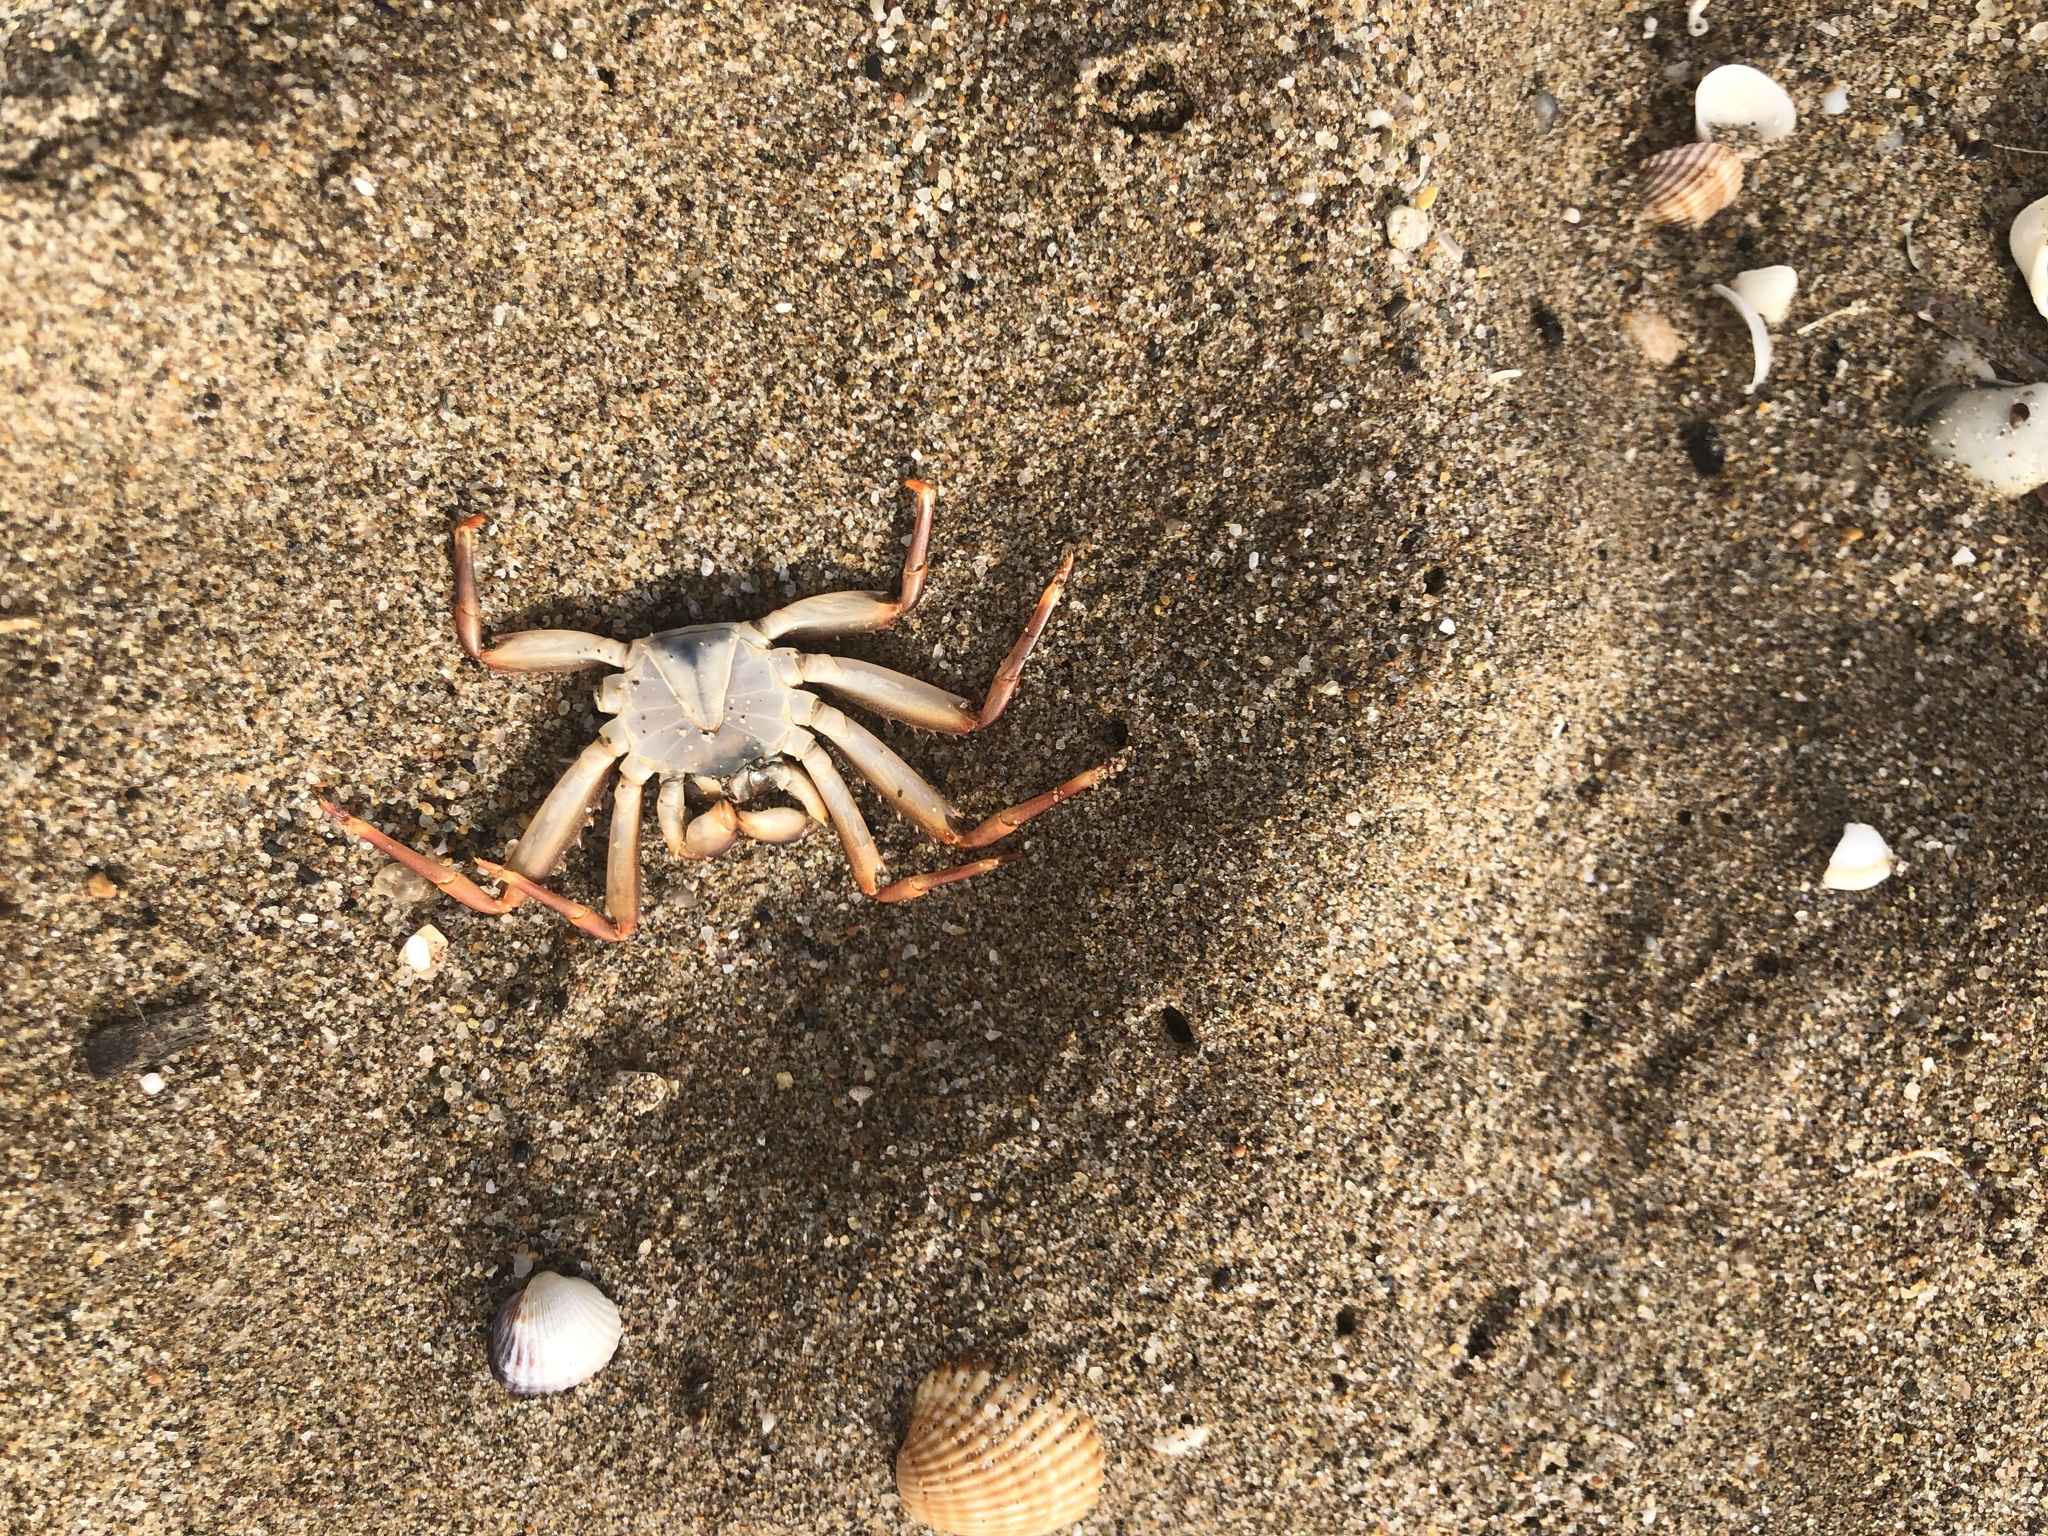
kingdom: Animalia
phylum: Arthropoda
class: Malacostraca
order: Decapoda
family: Percnidae
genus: Percnon
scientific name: Percnon gibbesi
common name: Nimble spray crab
